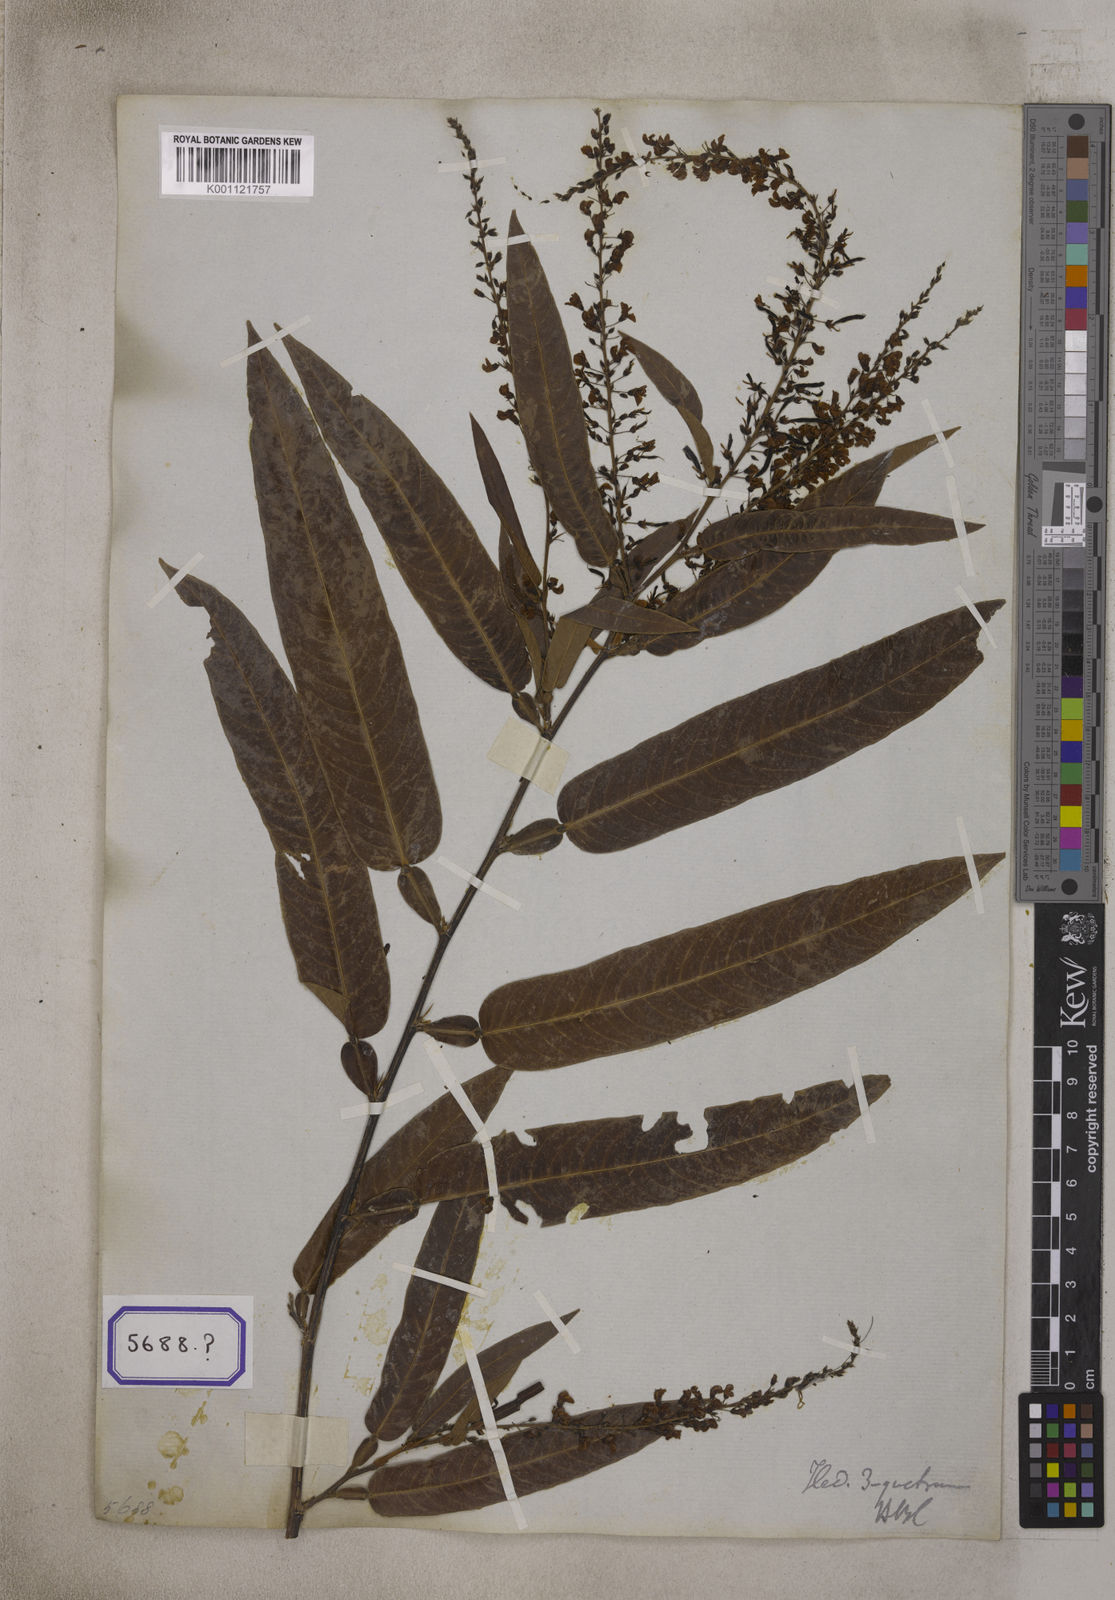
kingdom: Plantae
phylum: Tracheophyta
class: Magnoliopsida
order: Fabales
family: Fabaceae
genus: Tadehagi
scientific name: Tadehagi triquetrum
